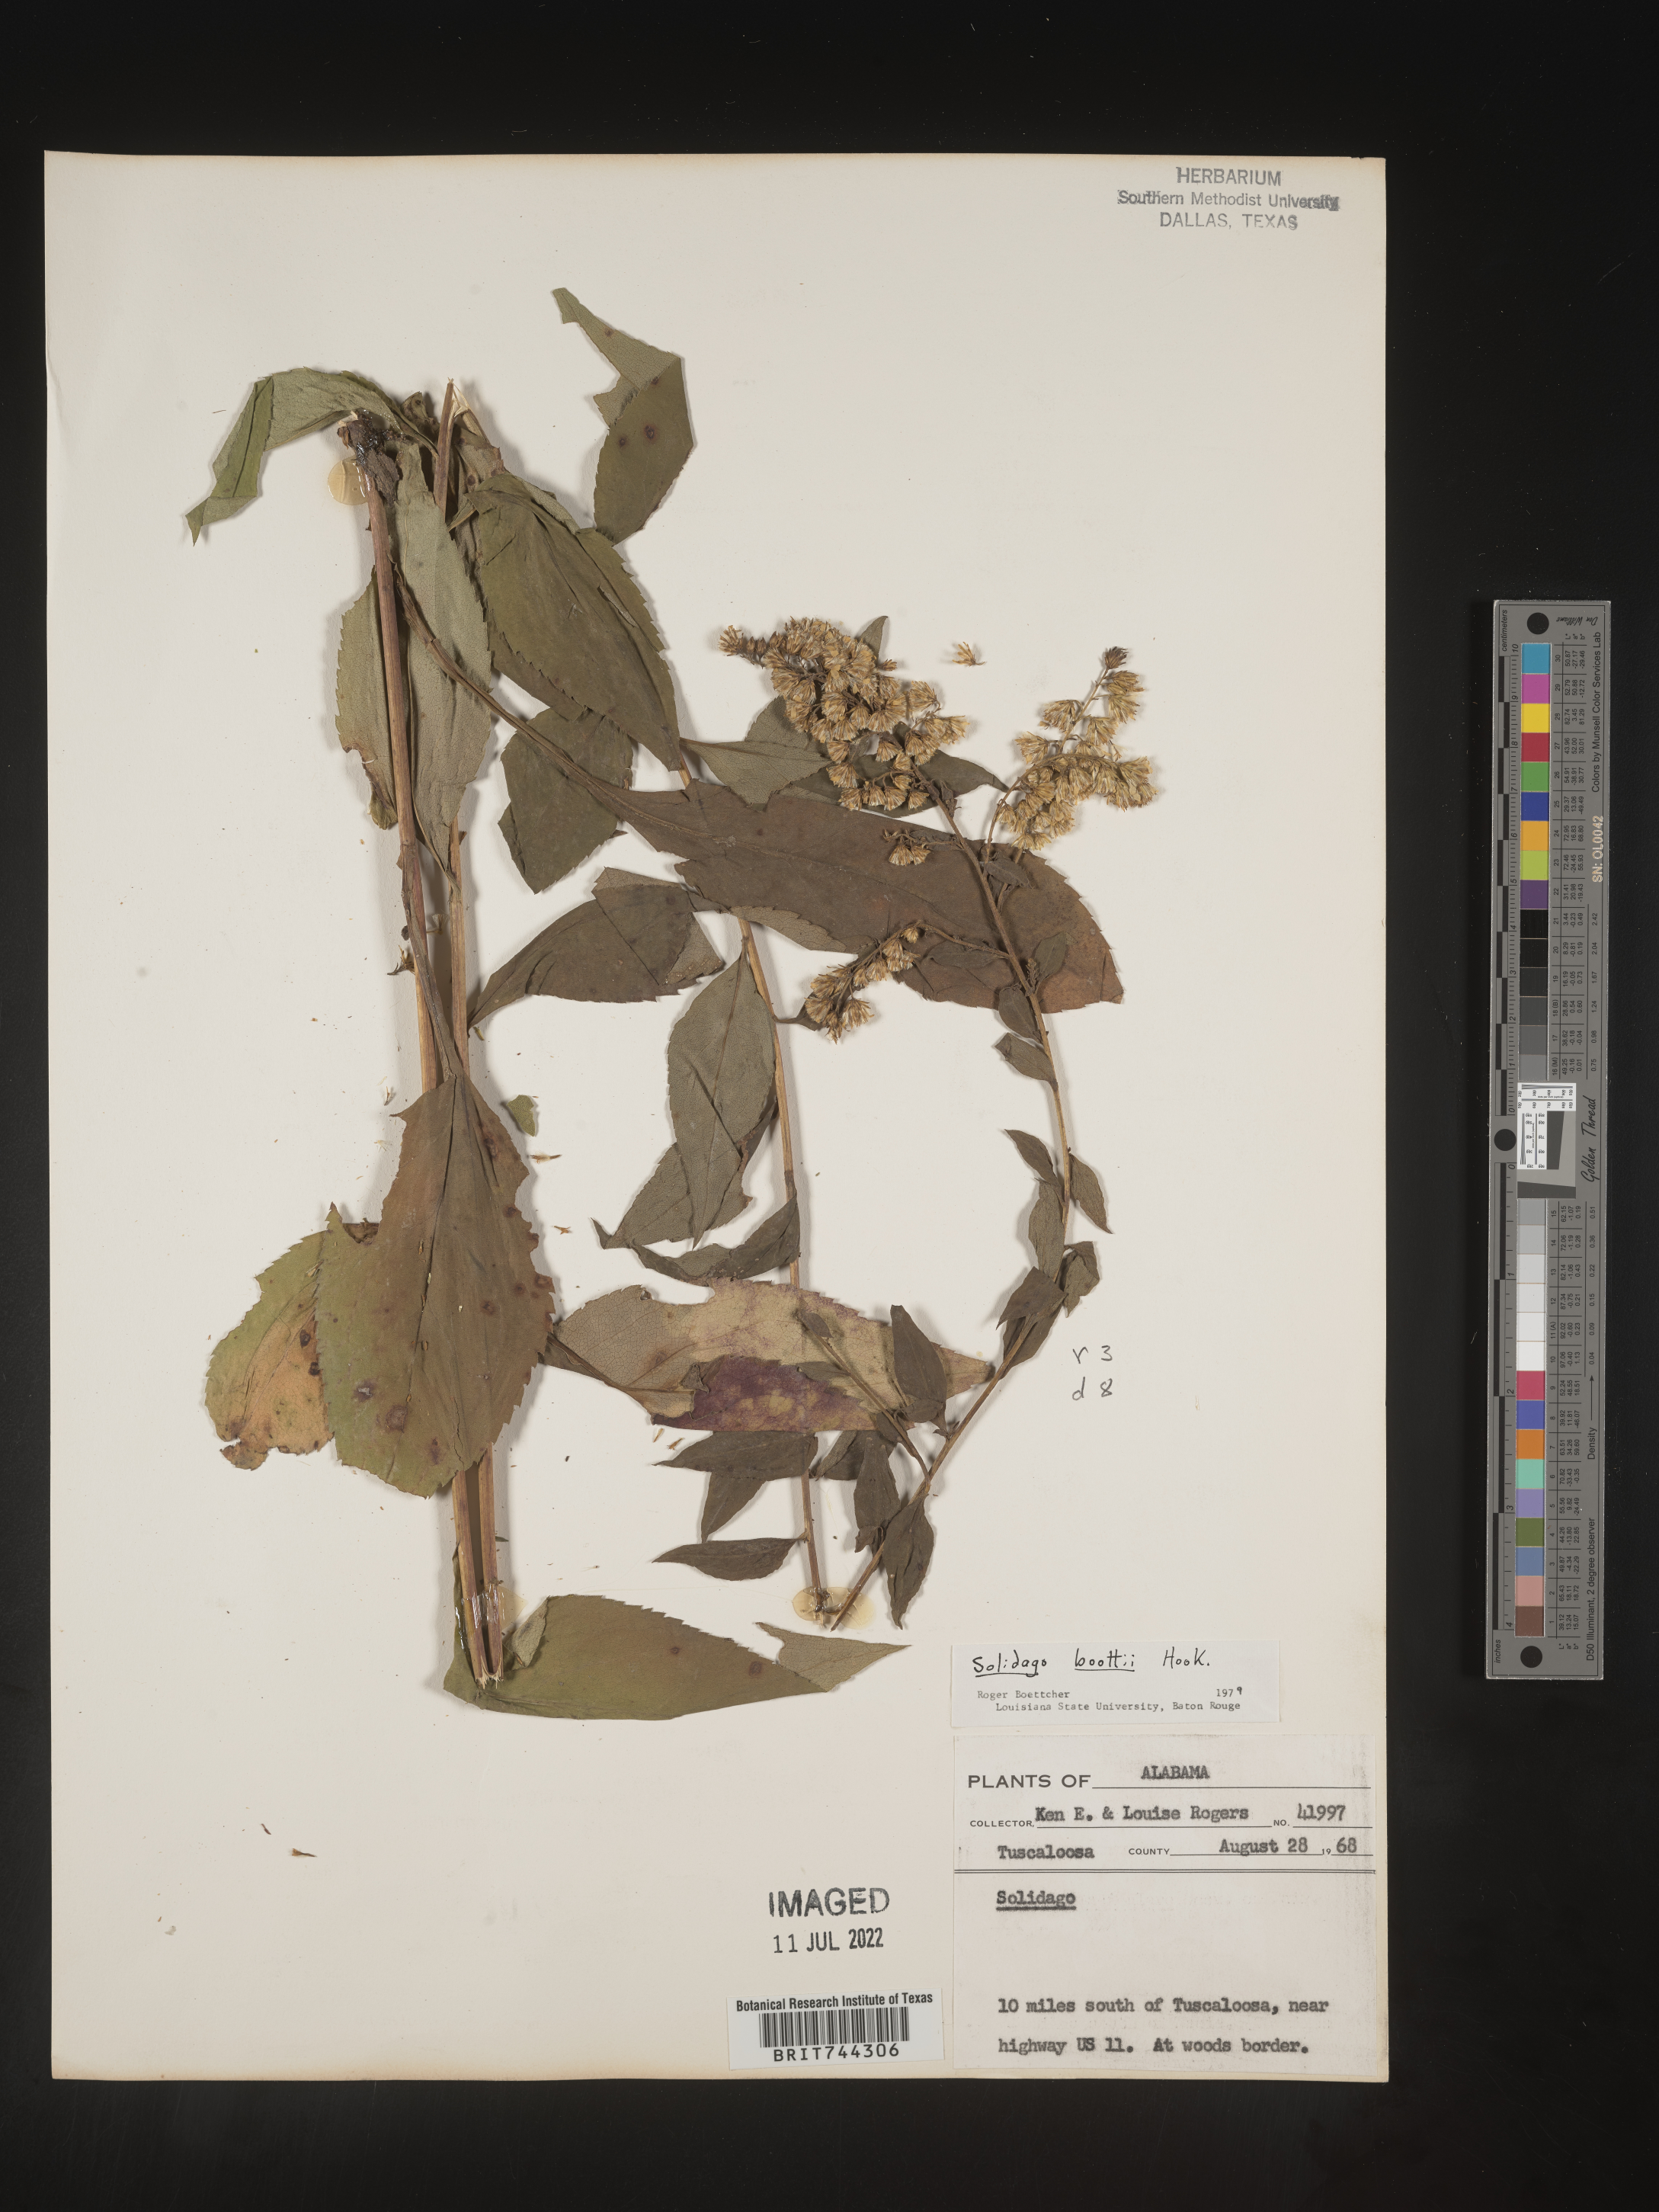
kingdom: Plantae
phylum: Tracheophyta
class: Magnoliopsida
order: Asterales
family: Asteraceae
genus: Solidago
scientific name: Solidago arguta
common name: Atlantic goldenrod
